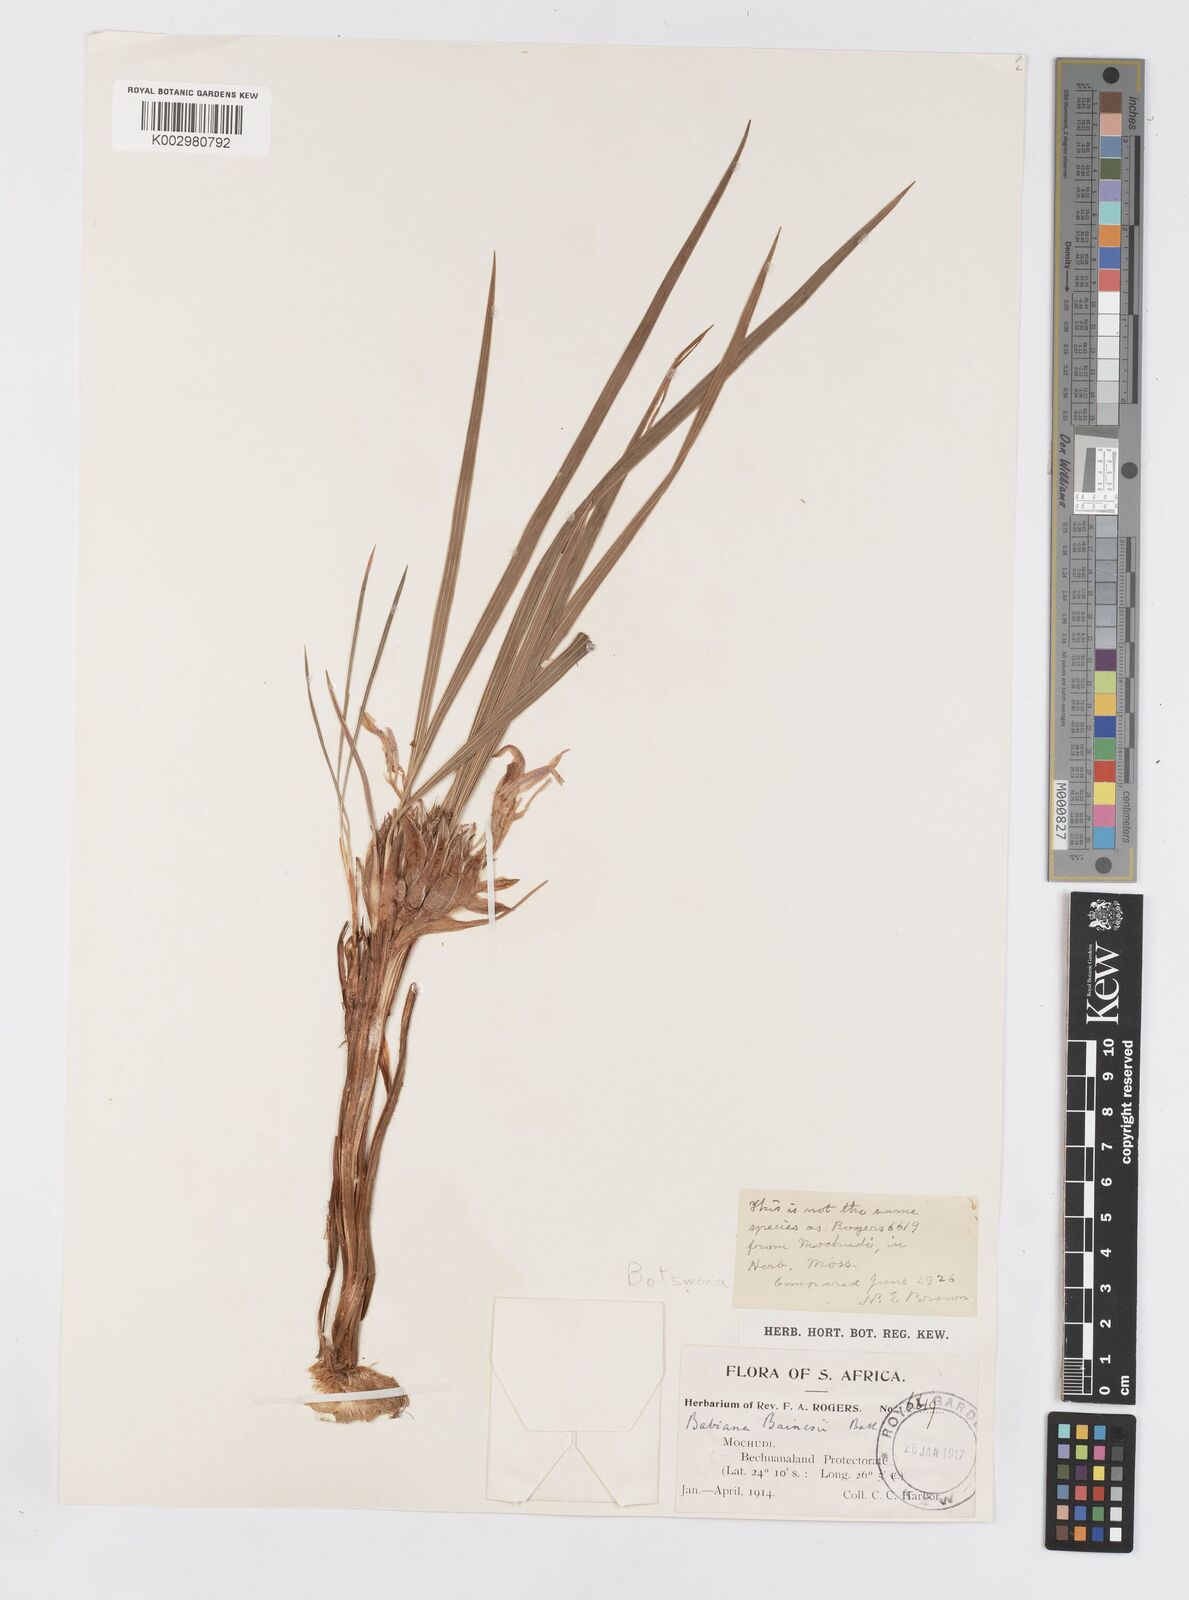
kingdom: Plantae
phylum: Tracheophyta
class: Liliopsida
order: Asparagales
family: Iridaceae
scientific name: Iridaceae
